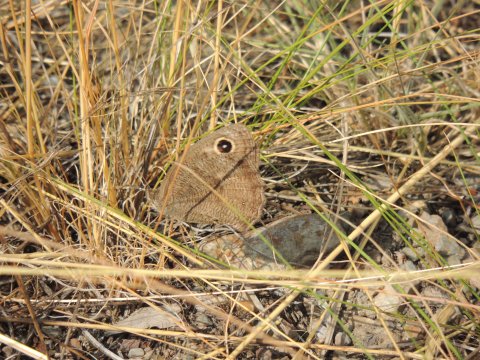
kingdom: Animalia
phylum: Arthropoda
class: Insecta
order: Lepidoptera
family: Nymphalidae
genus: Cercyonis
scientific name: Cercyonis pegala
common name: Common Wood-Nymph
